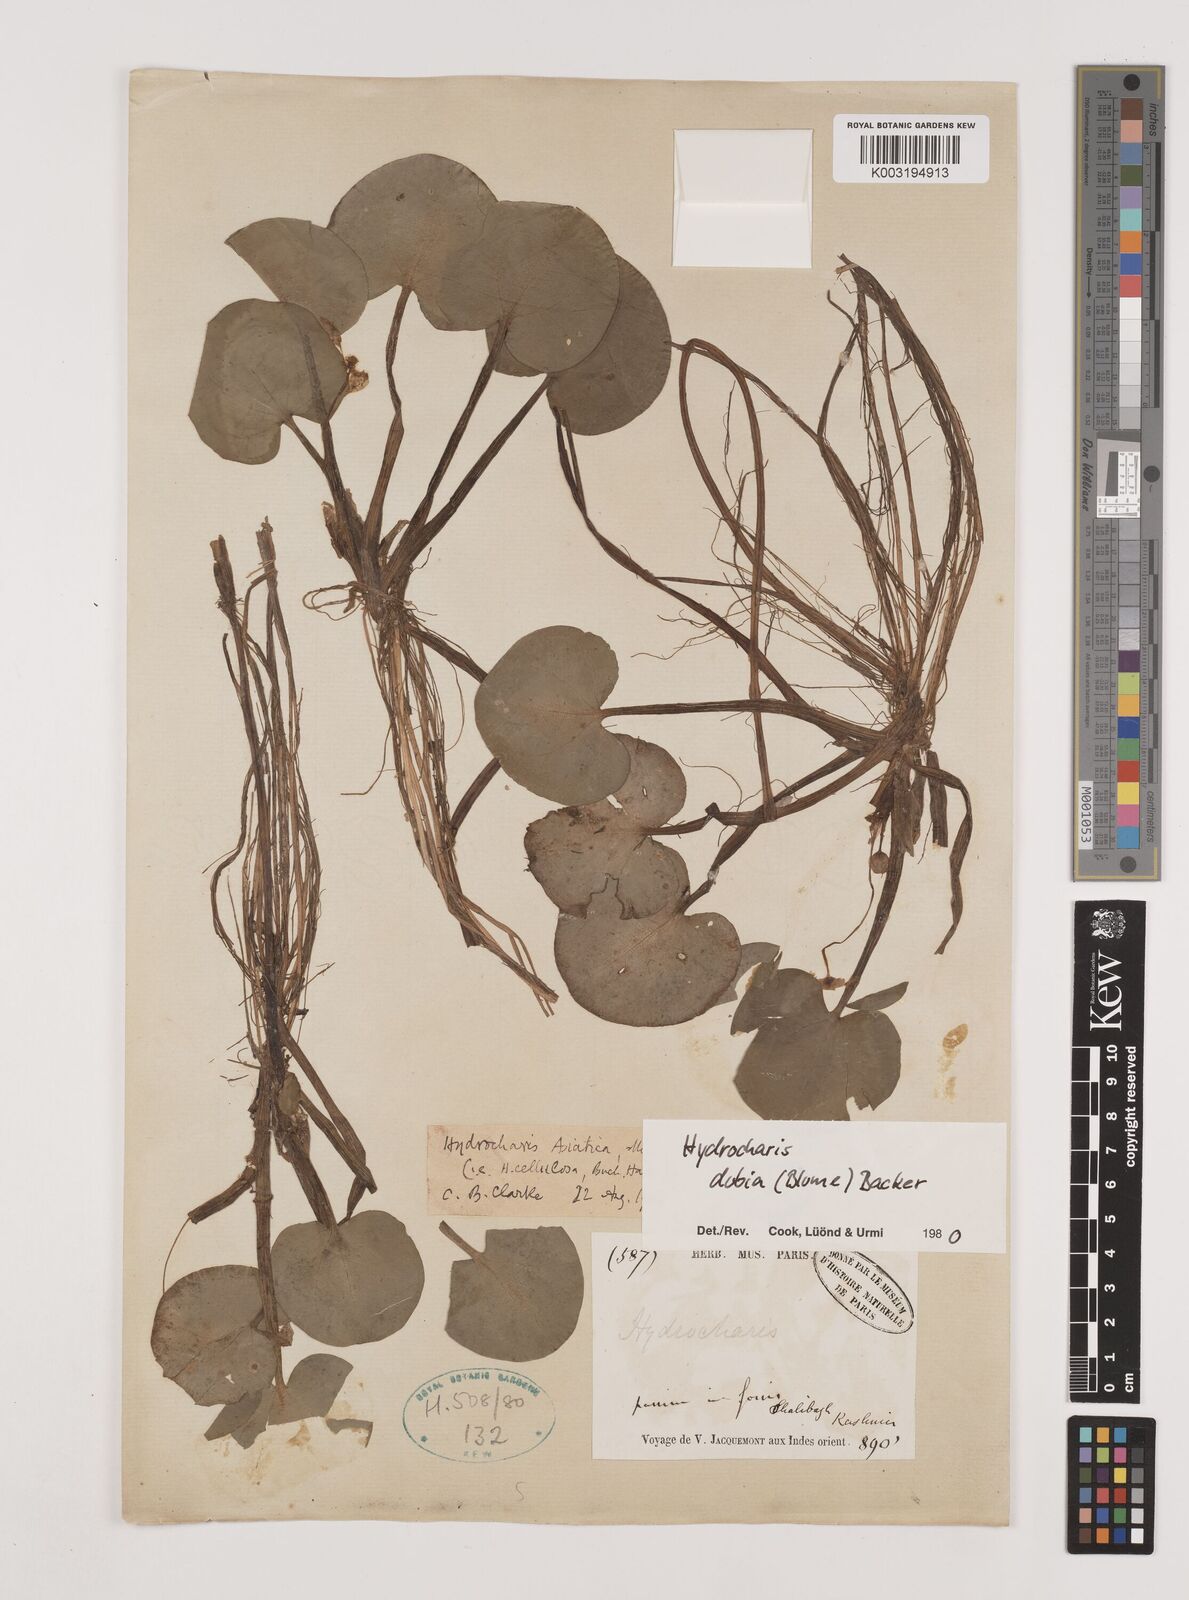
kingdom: Plantae
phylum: Tracheophyta
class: Liliopsida
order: Alismatales
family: Hydrocharitaceae
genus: Hydrocharis
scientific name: Hydrocharis dubia
